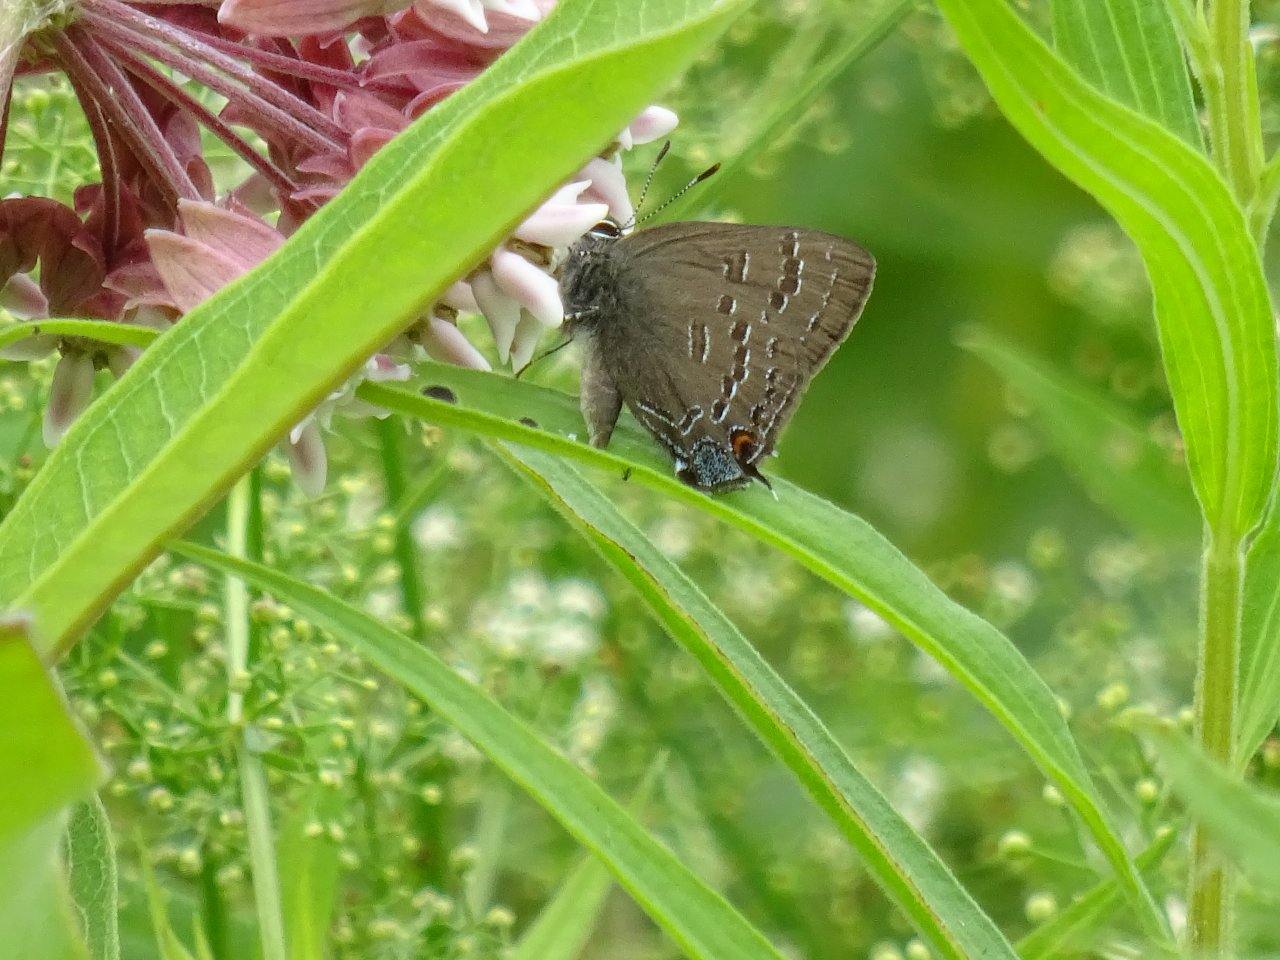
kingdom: Animalia
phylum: Arthropoda
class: Insecta
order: Lepidoptera
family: Lycaenidae
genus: Satyrium
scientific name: Satyrium calanus
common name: Banded Hairstreak
